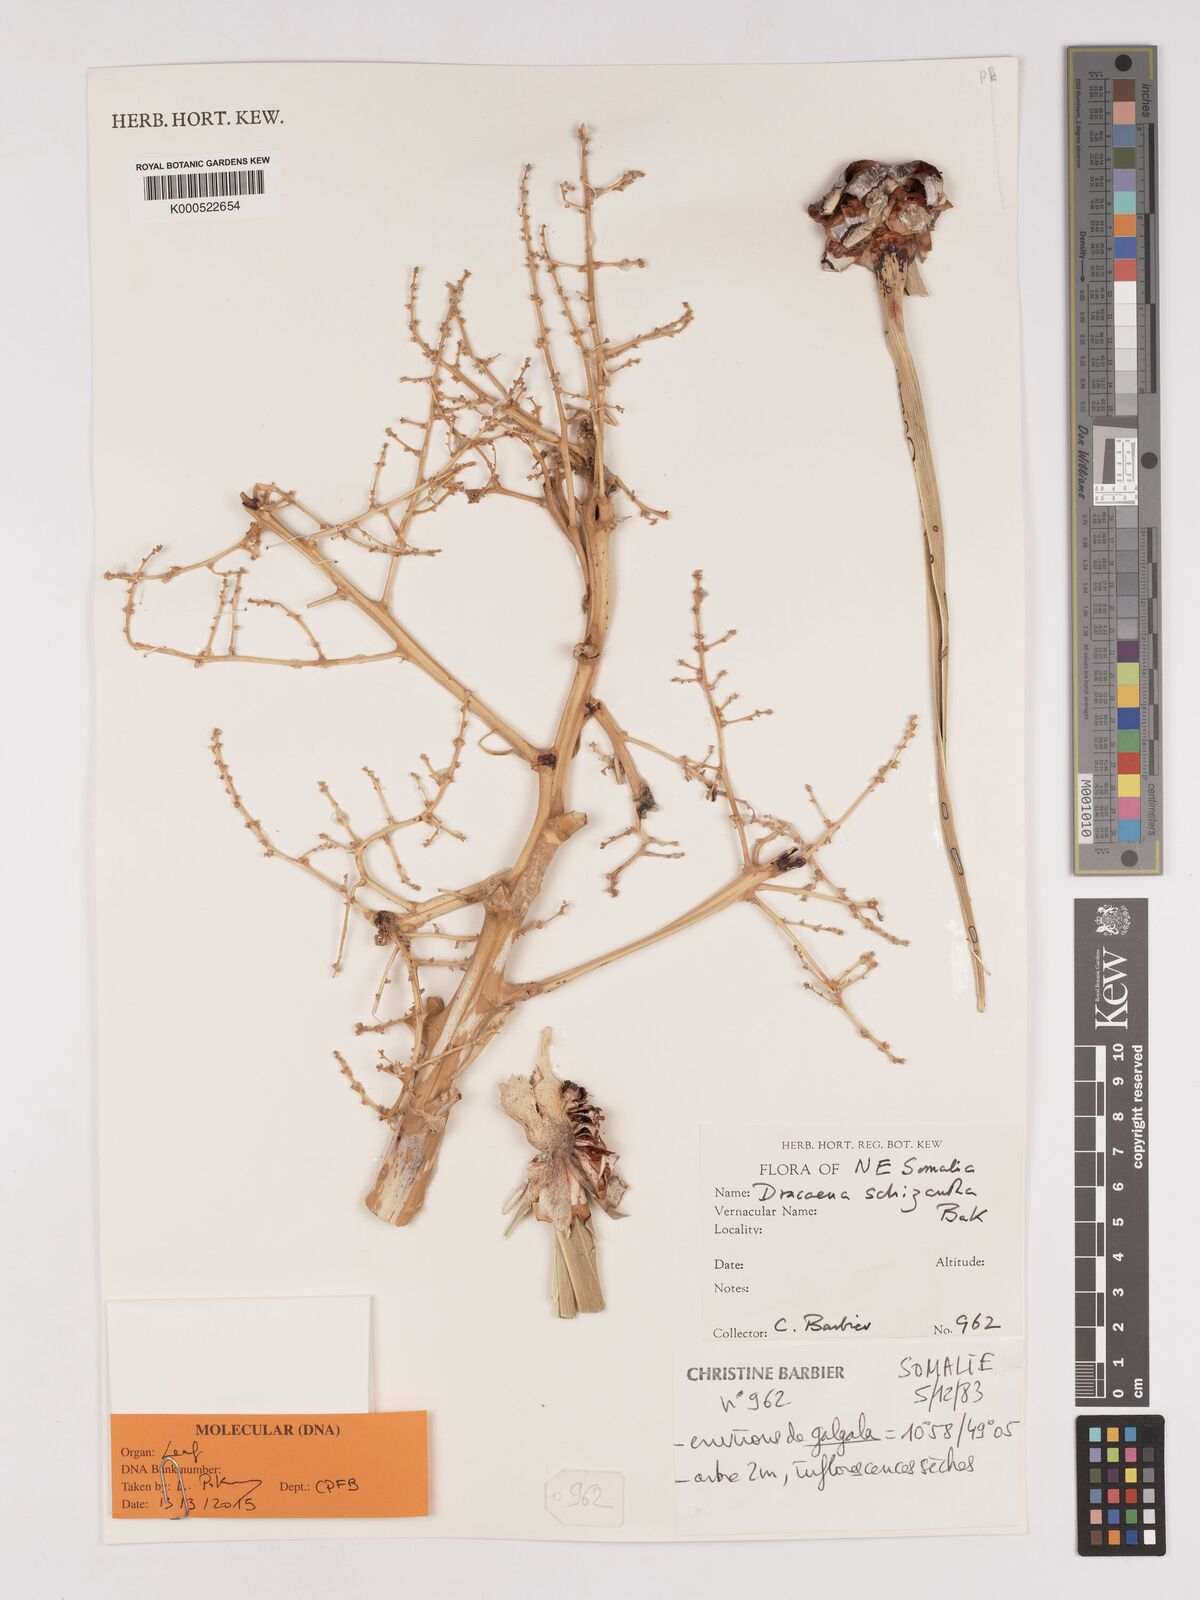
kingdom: Plantae
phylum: Tracheophyta
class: Liliopsida
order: Asparagales
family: Asparagaceae
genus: Dracaena
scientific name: Dracaena ombet
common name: Gabal elba dragon tree
